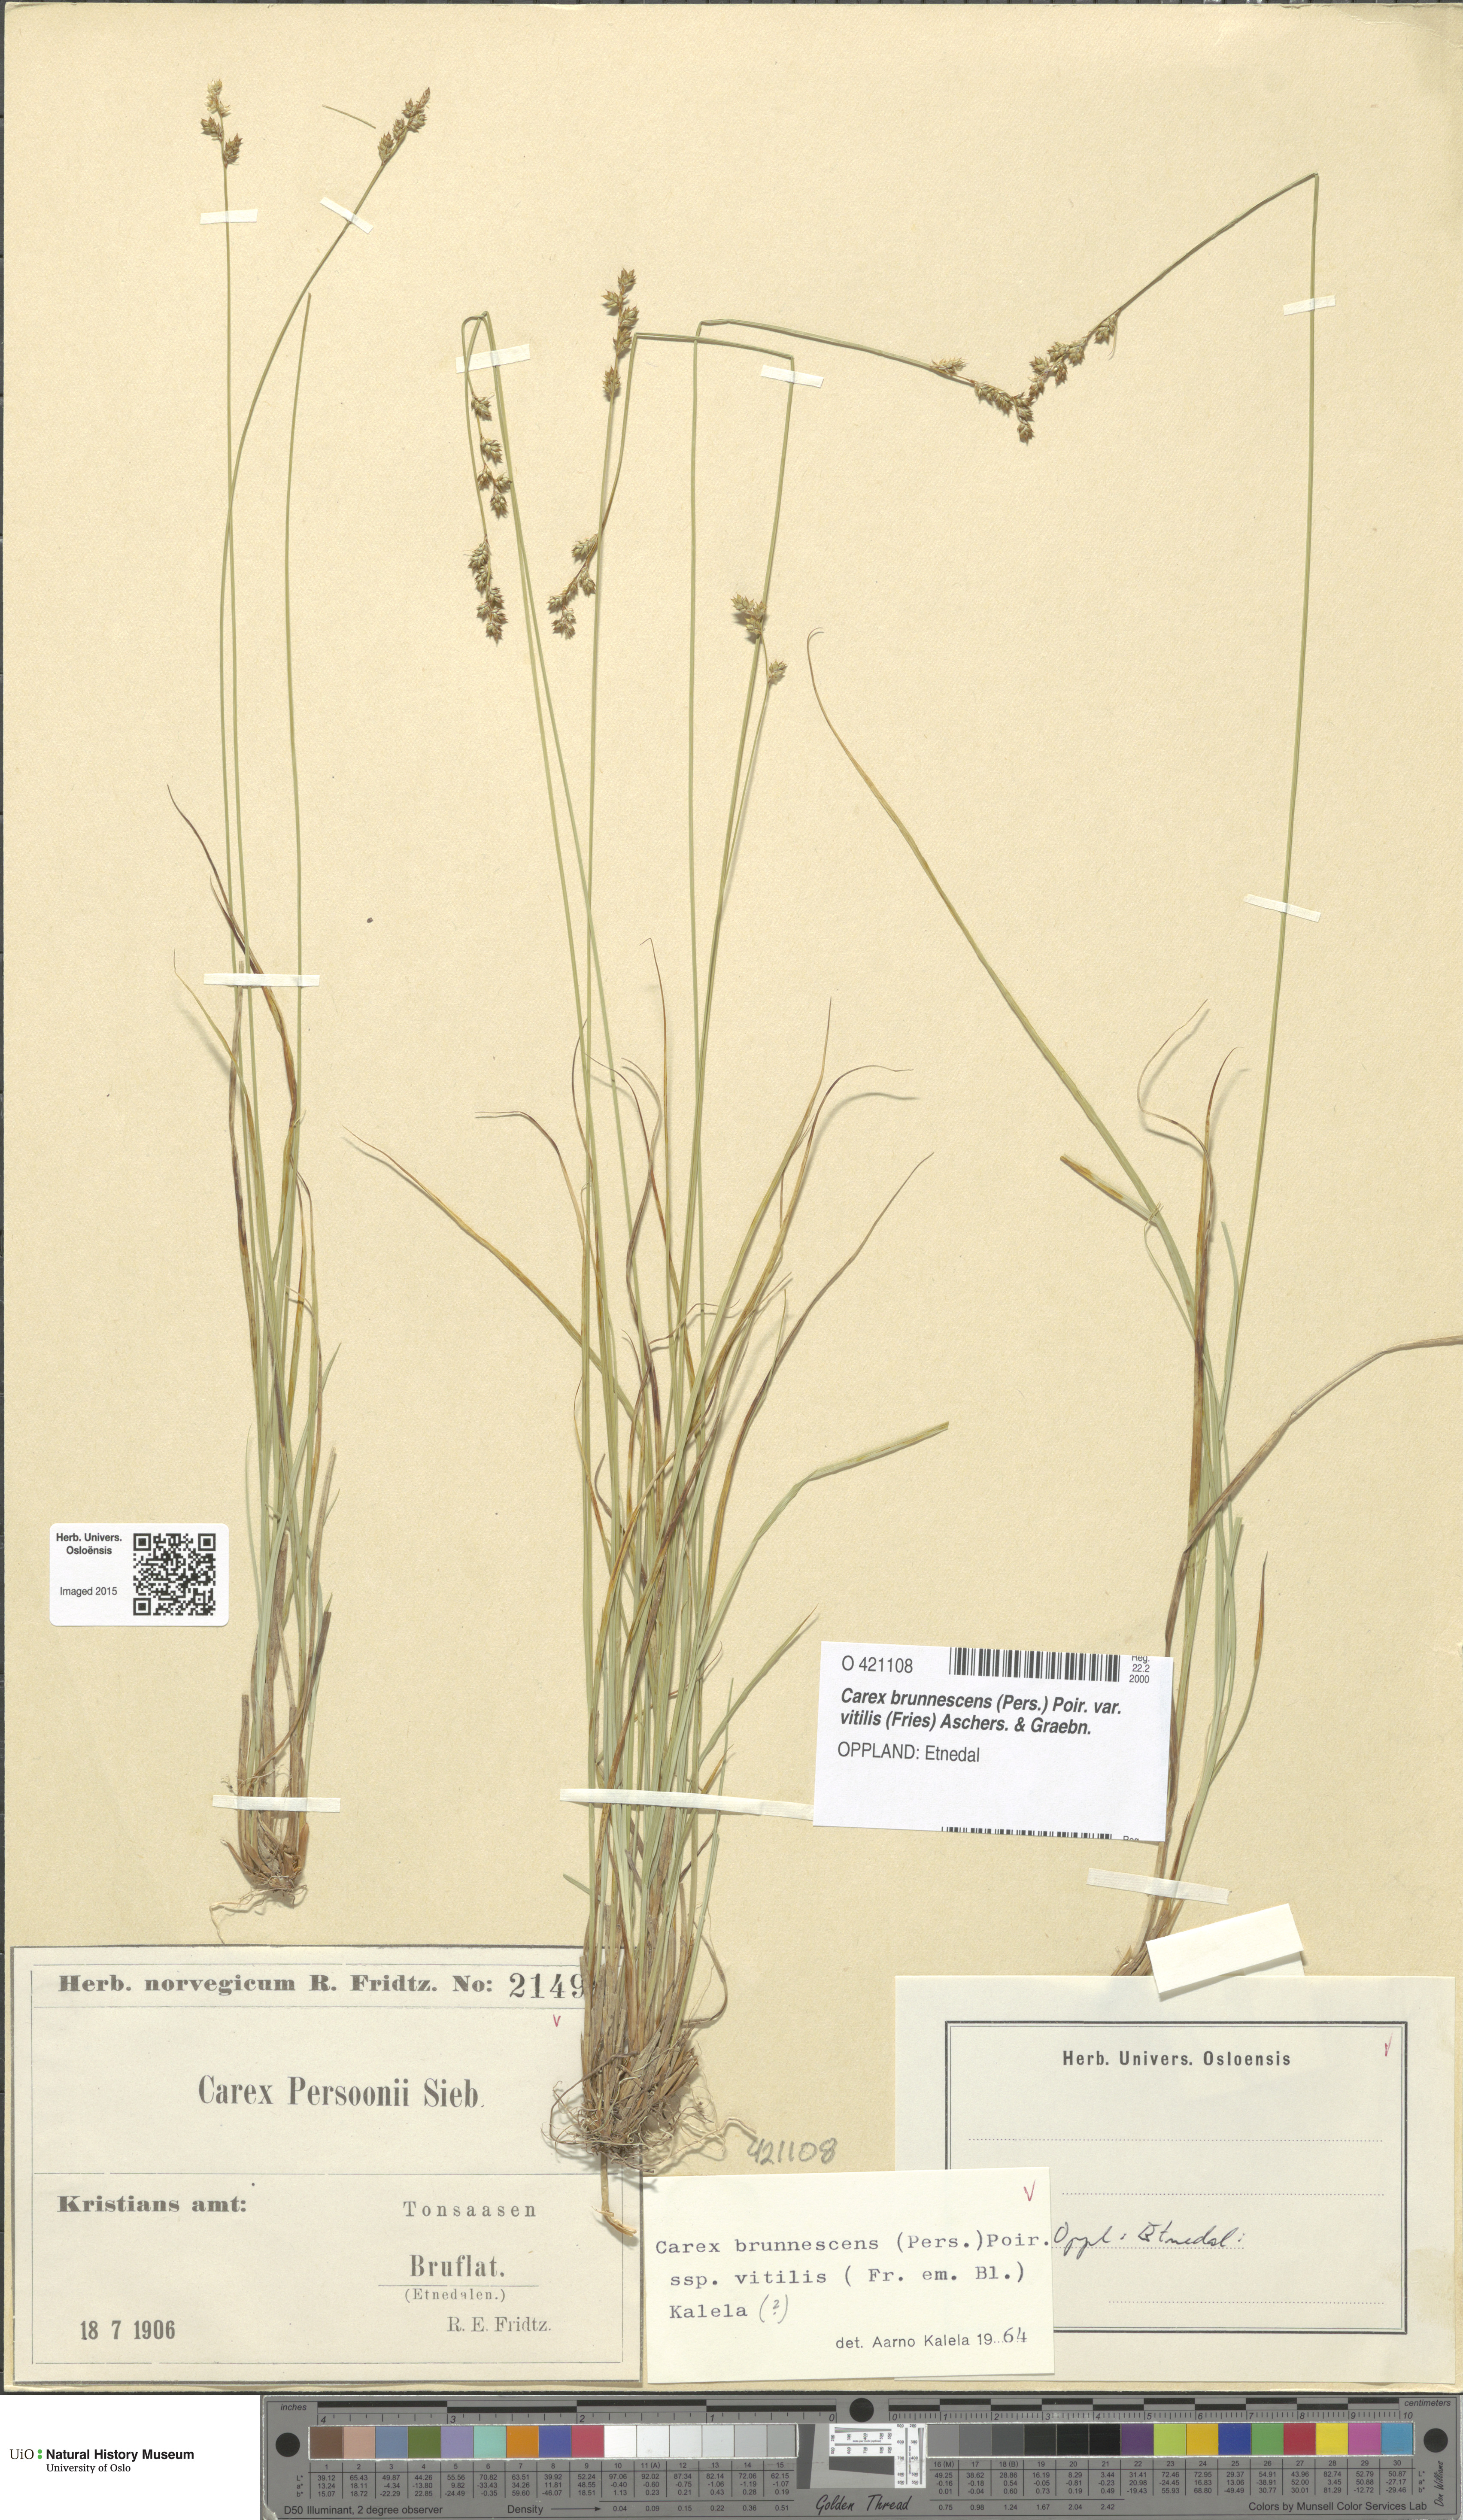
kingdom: Plantae
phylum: Tracheophyta
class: Liliopsida
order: Poales
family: Cyperaceae
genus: Carex
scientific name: Carex brunnescens
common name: Brown sedge
